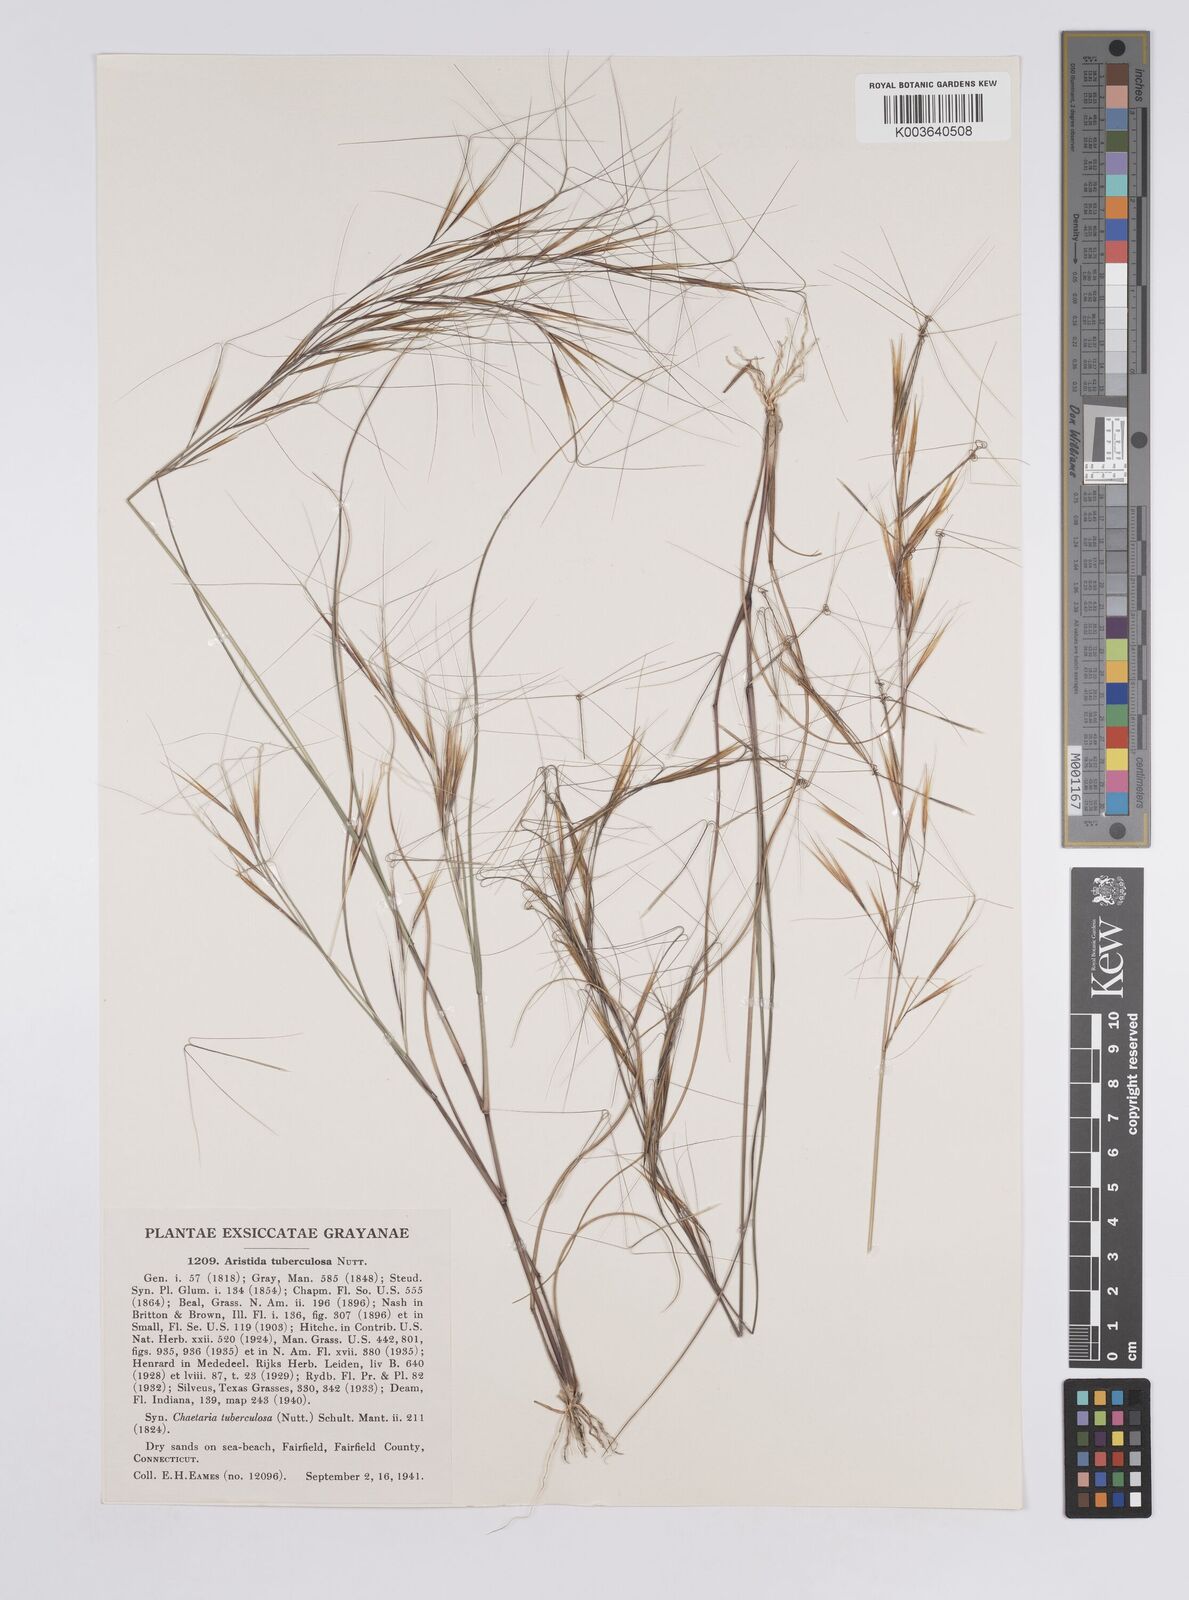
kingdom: Plantae
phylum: Tracheophyta
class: Liliopsida
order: Poales
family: Poaceae
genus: Aristida
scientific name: Aristida tuberculosa
